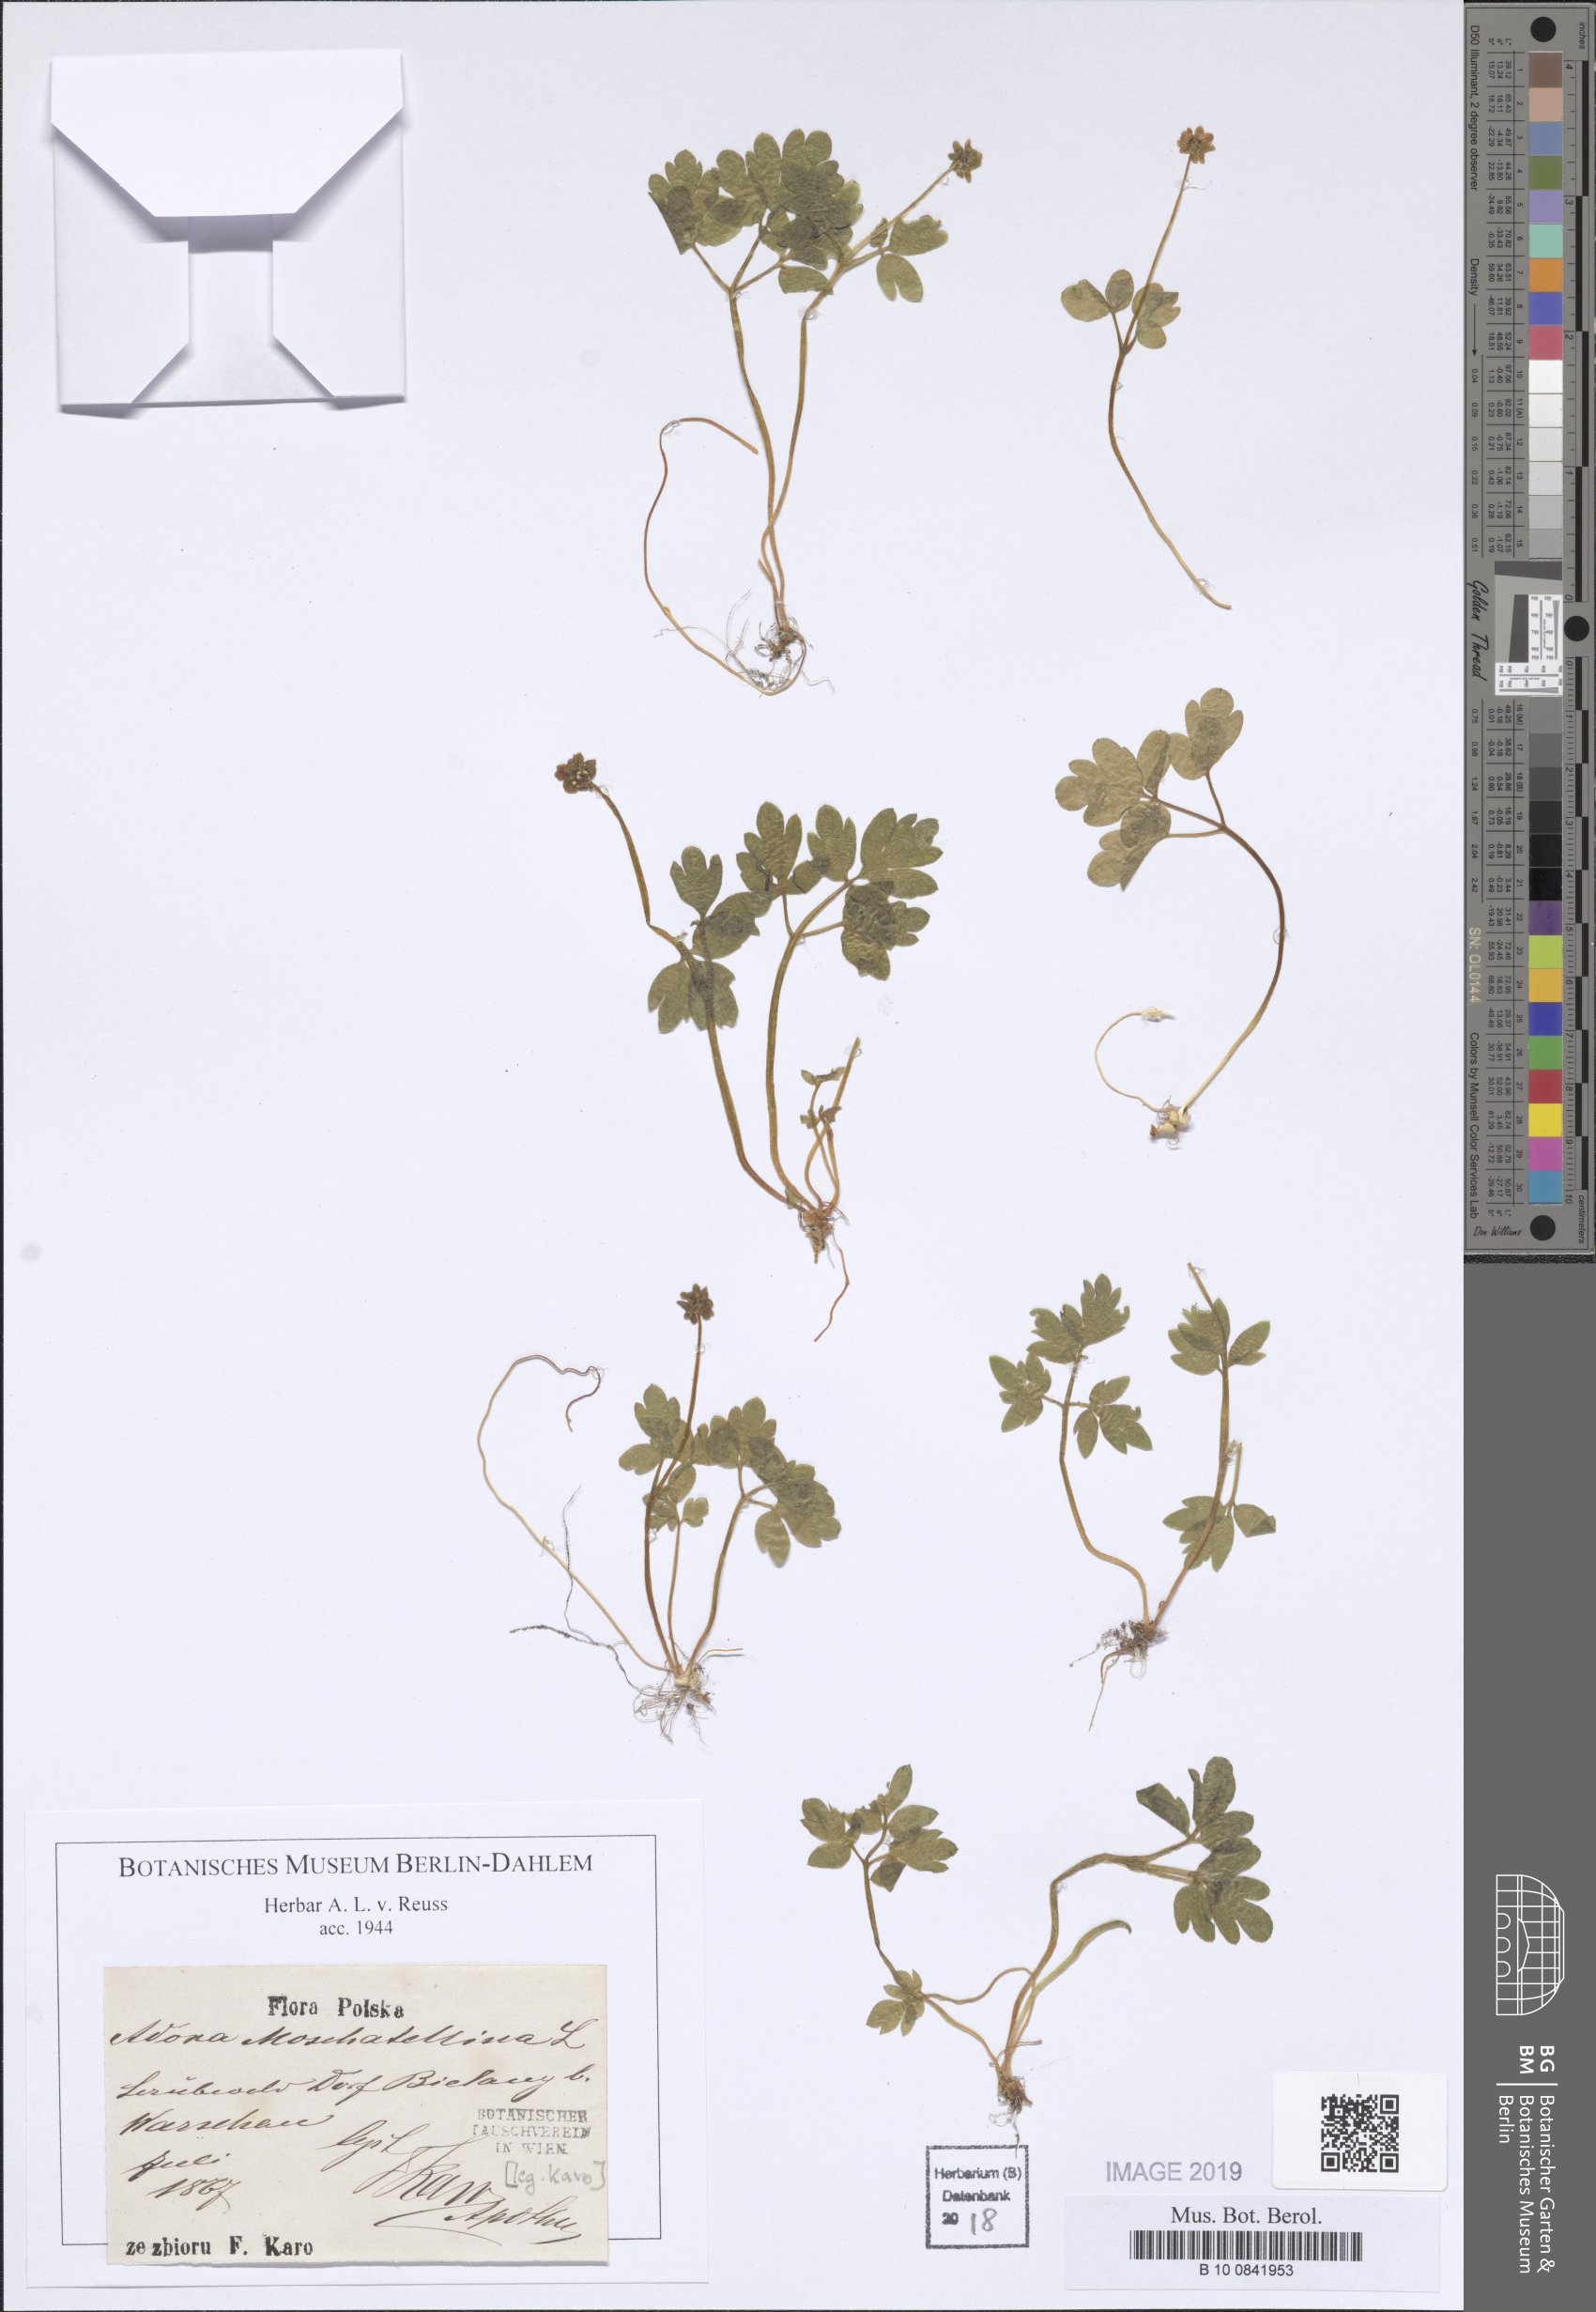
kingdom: Plantae
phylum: Tracheophyta
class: Magnoliopsida
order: Dipsacales
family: Viburnaceae
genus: Adoxa
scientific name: Adoxa moschatellina
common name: Moschatel
